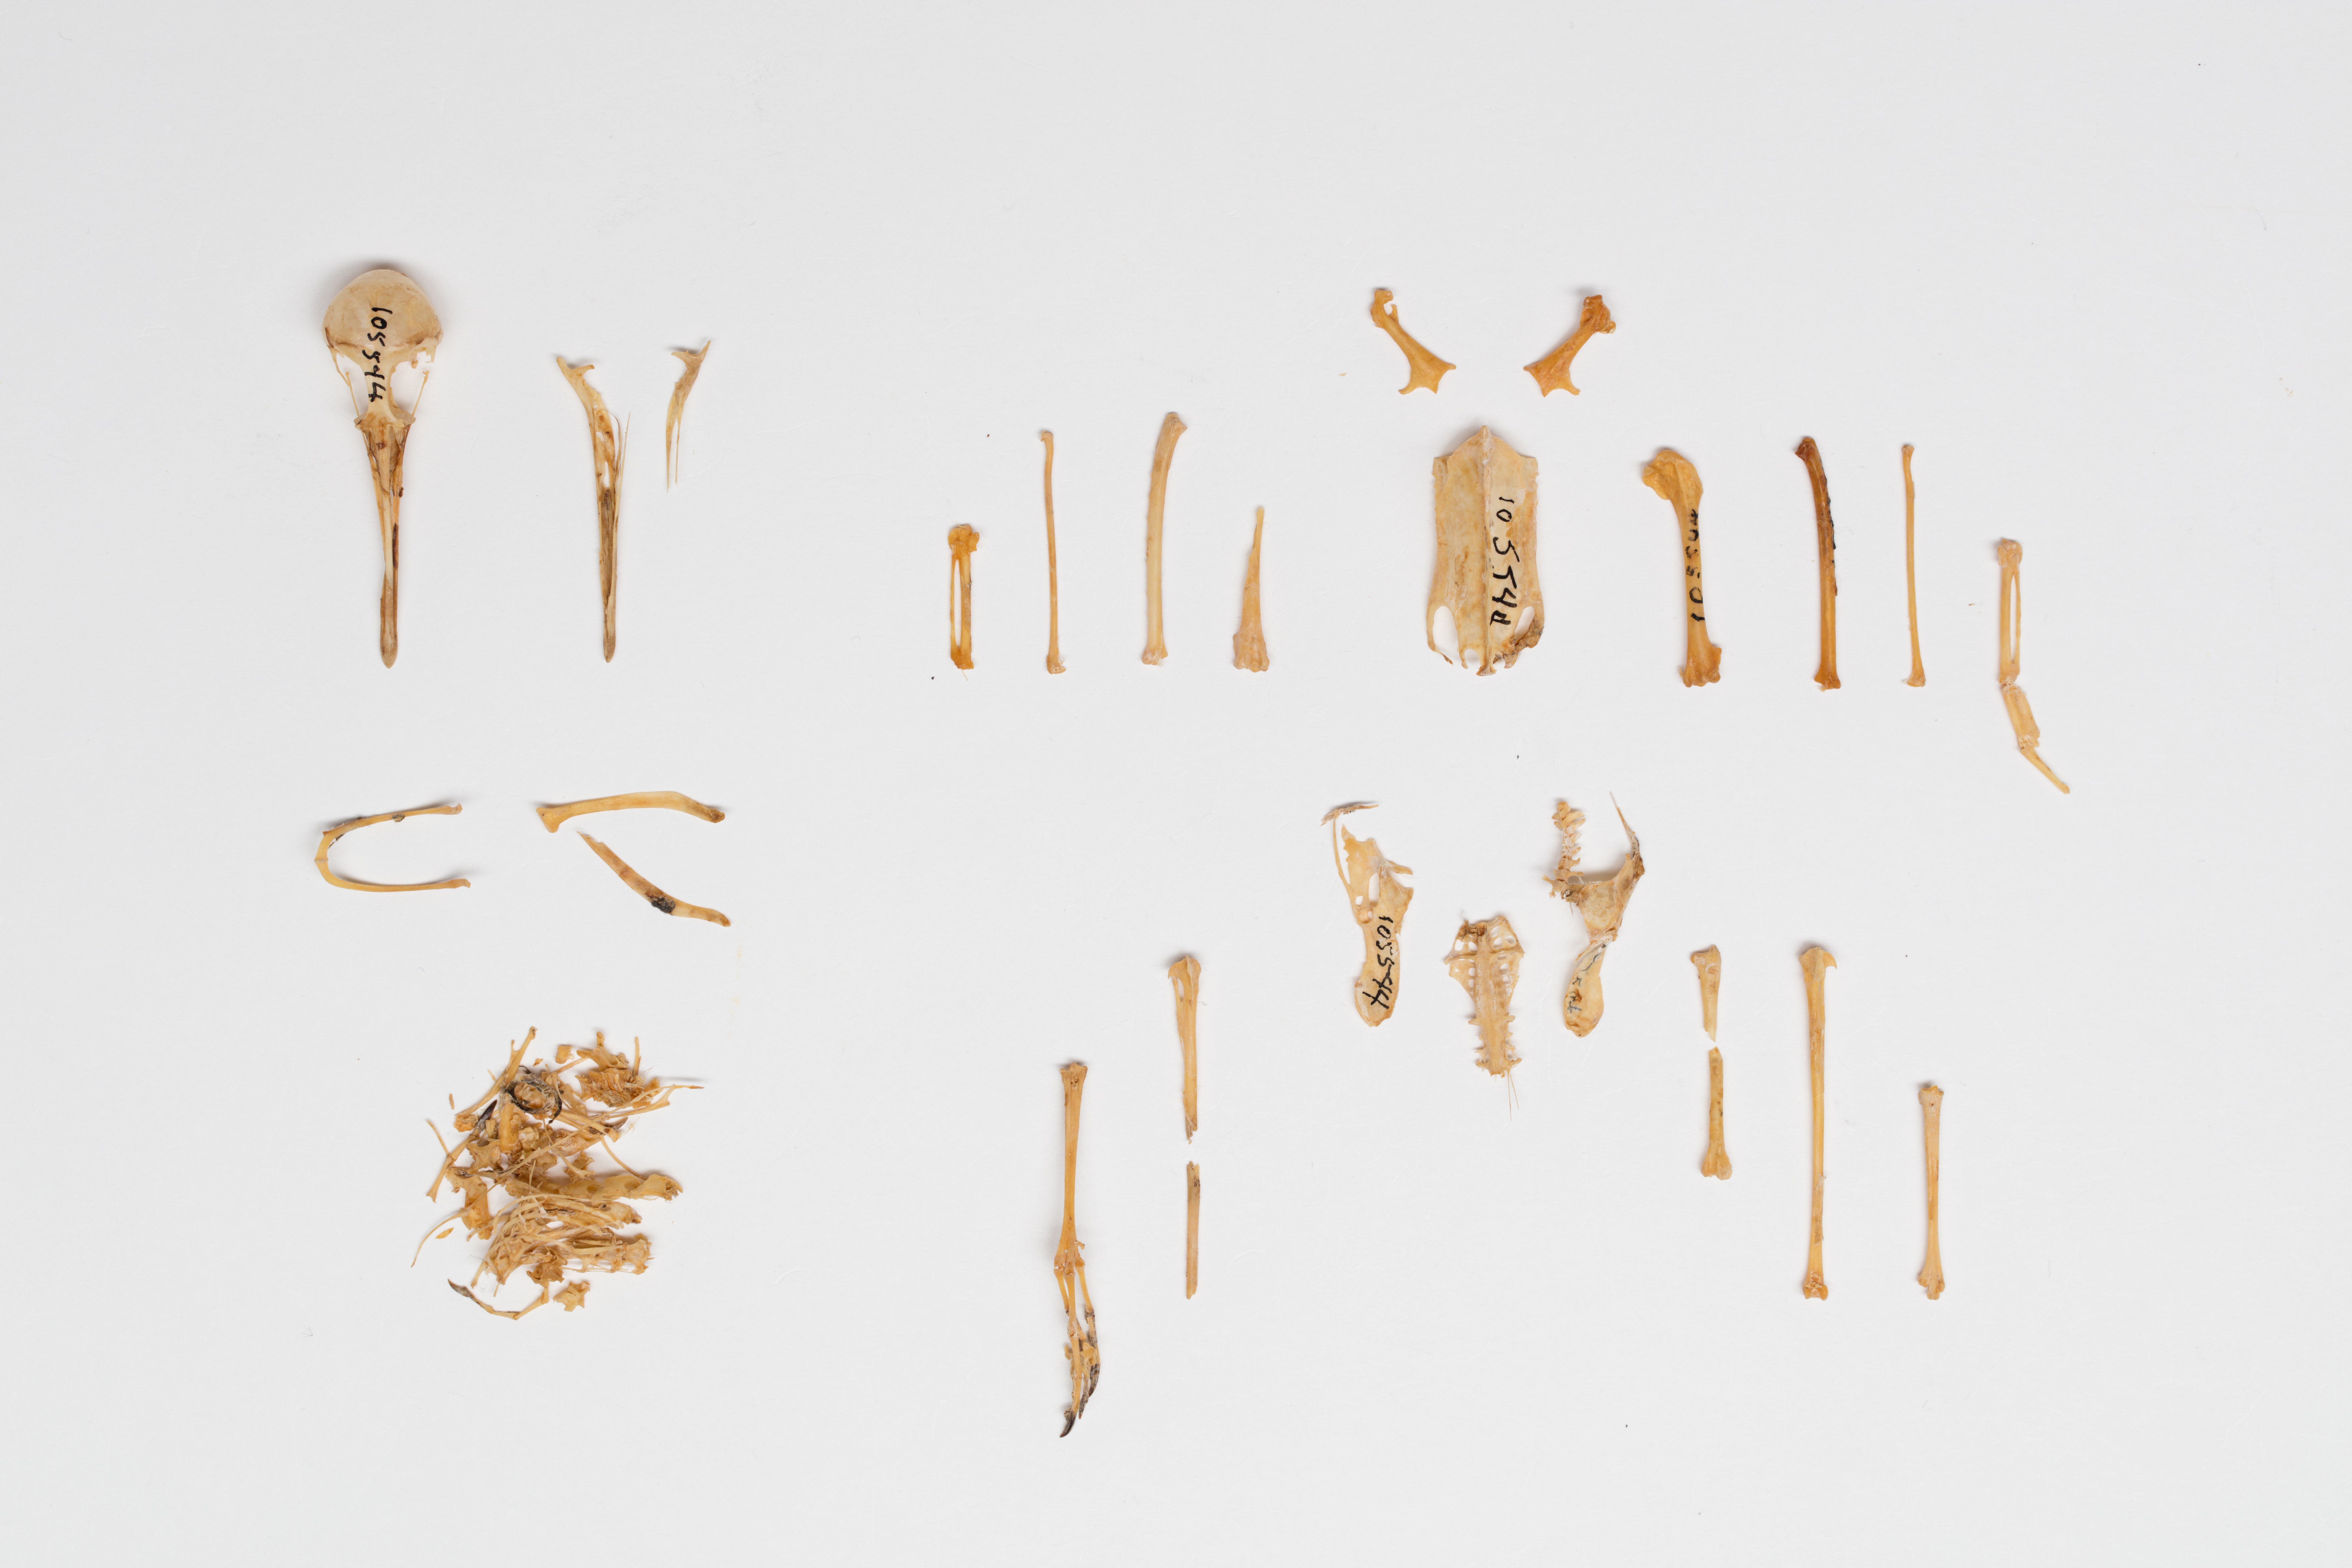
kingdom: Animalia
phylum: Chordata
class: Aves
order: Charadriiformes
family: Scolopacidae
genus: Calidris
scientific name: Calidris pusilla
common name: Semipalmated sandpiper
